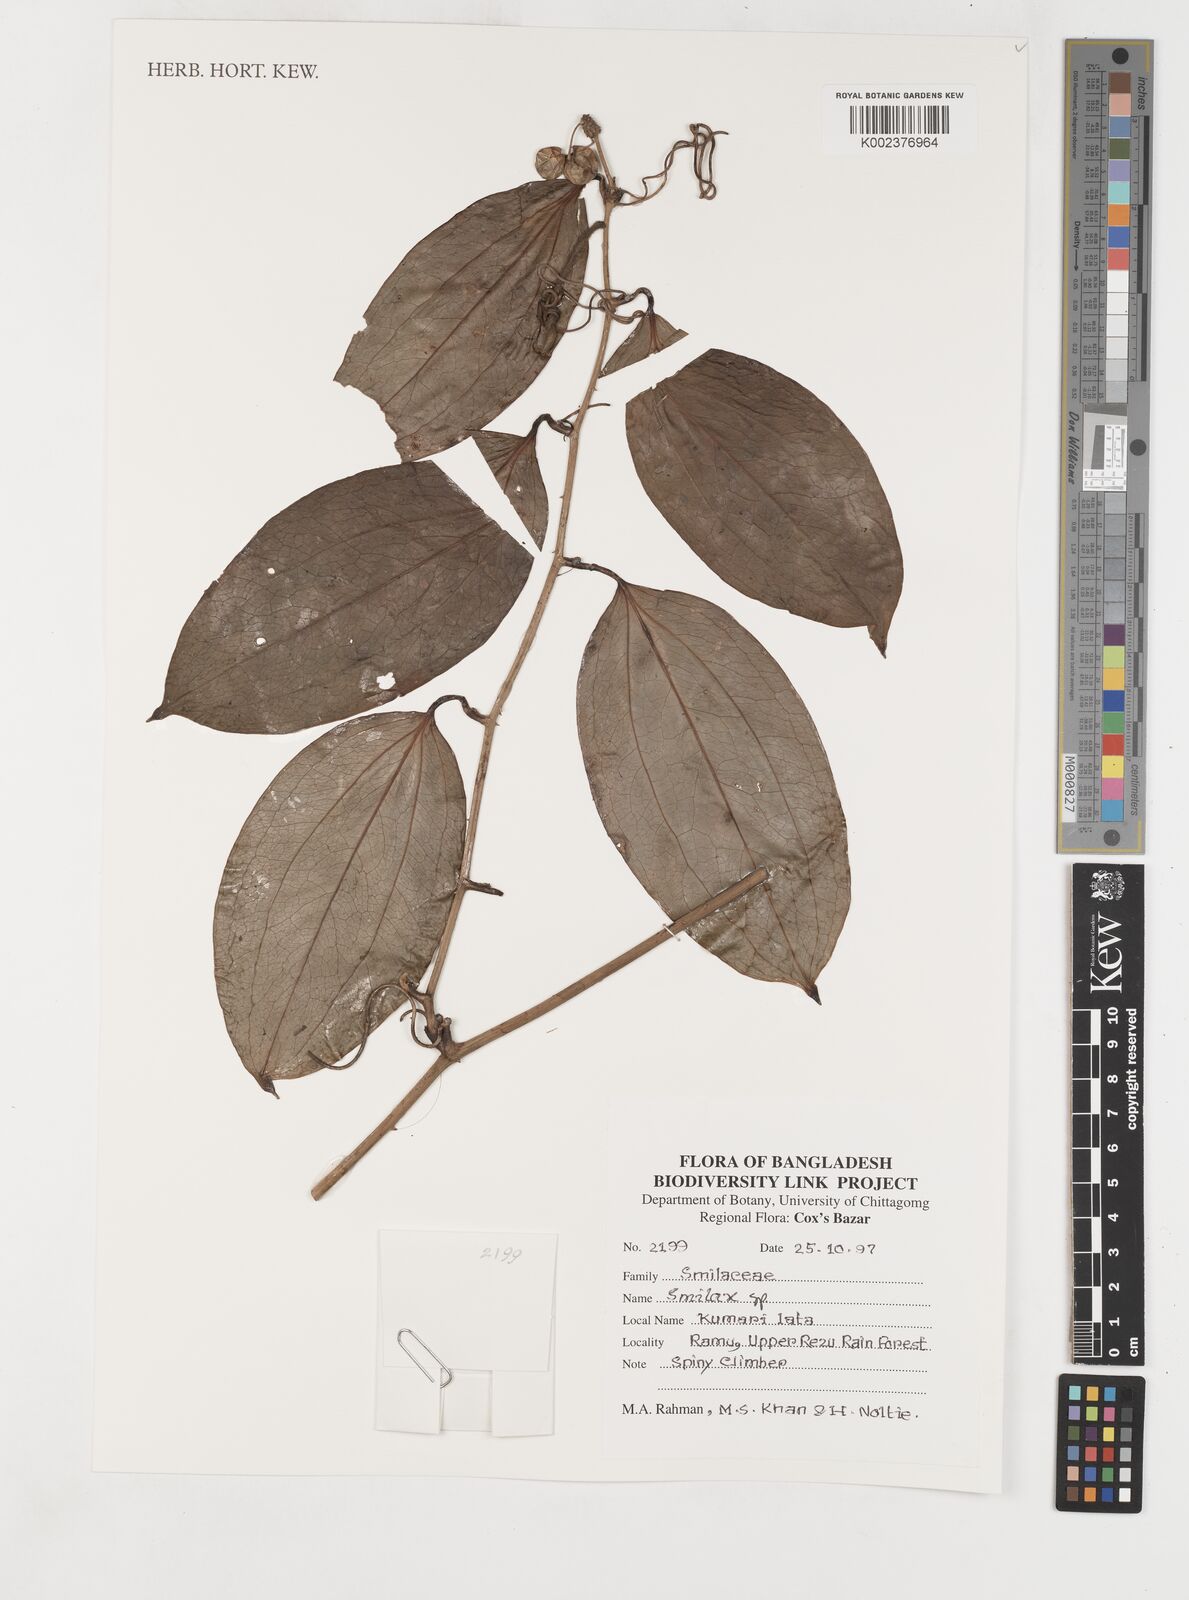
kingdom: Plantae
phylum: Tracheophyta
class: Liliopsida
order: Liliales
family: Smilacaceae
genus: Smilax
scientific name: Smilax
